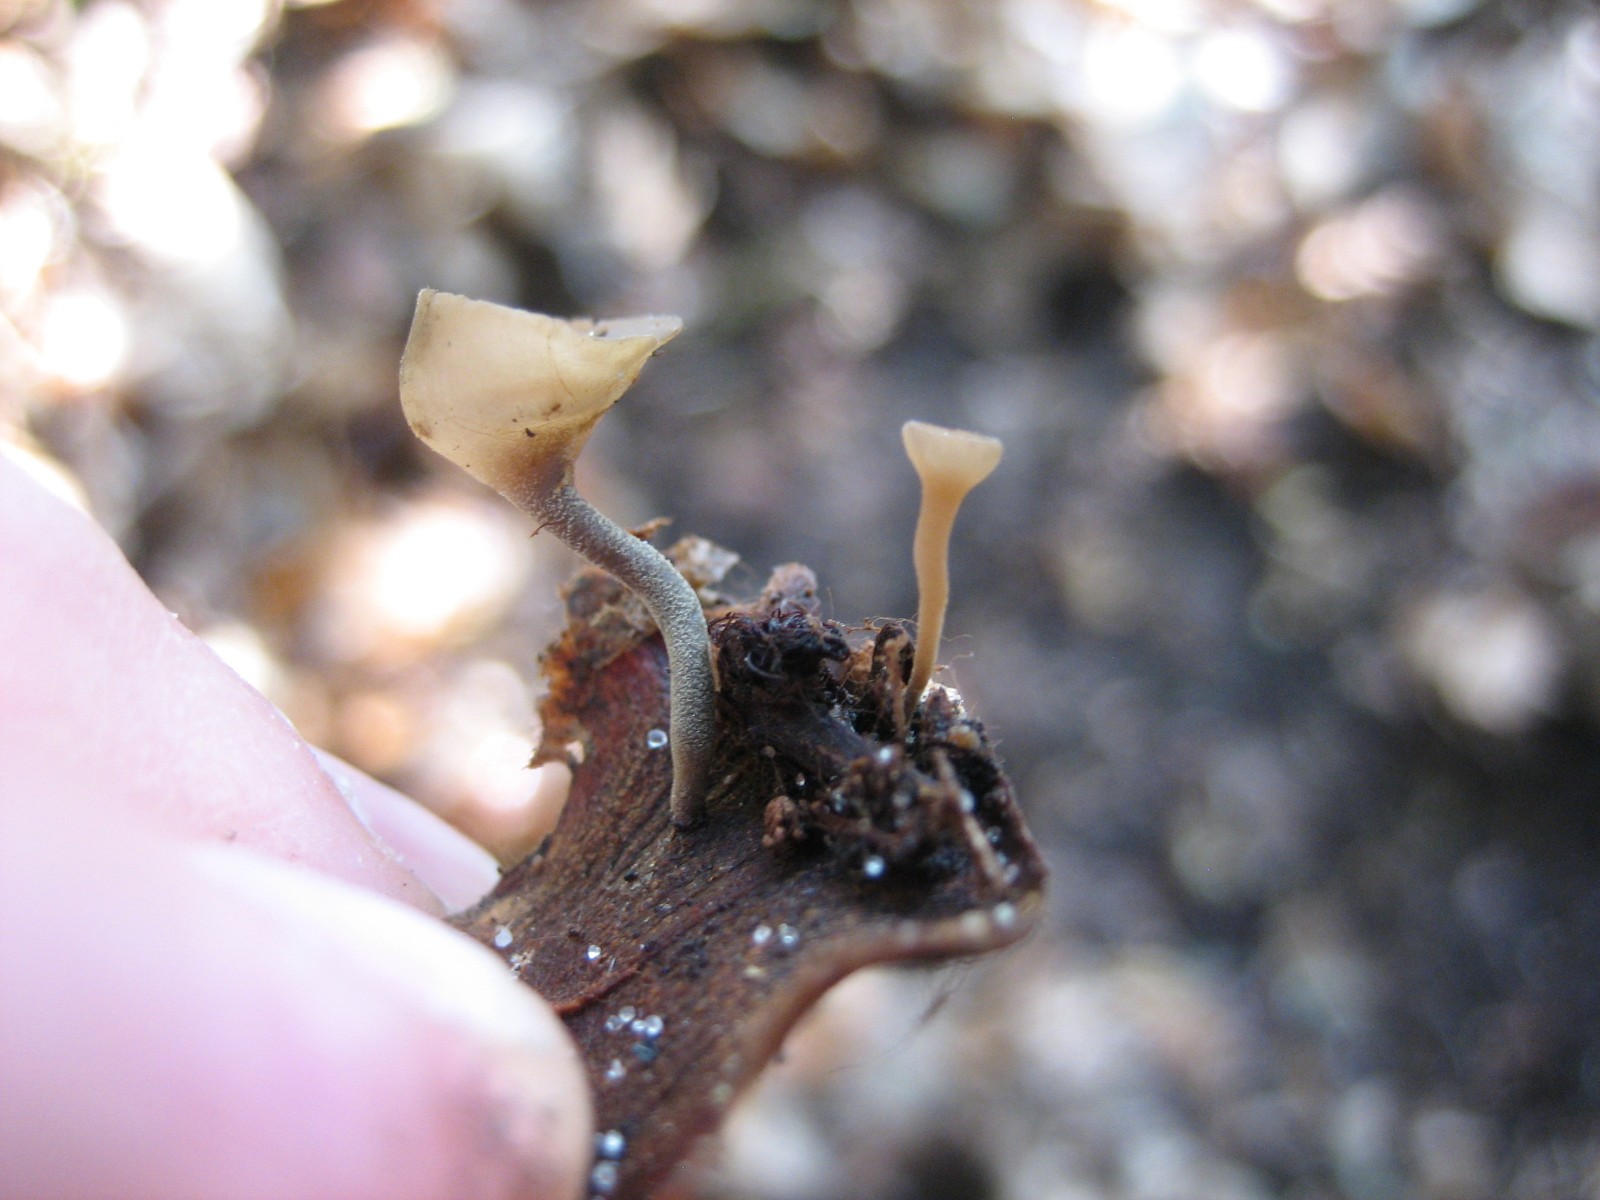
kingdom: Fungi
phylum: Ascomycota
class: Leotiomycetes
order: Helotiales
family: Sclerotiniaceae
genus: Ciboria
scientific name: Ciboria rufofusca
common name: kogleskæl-knoldskive
